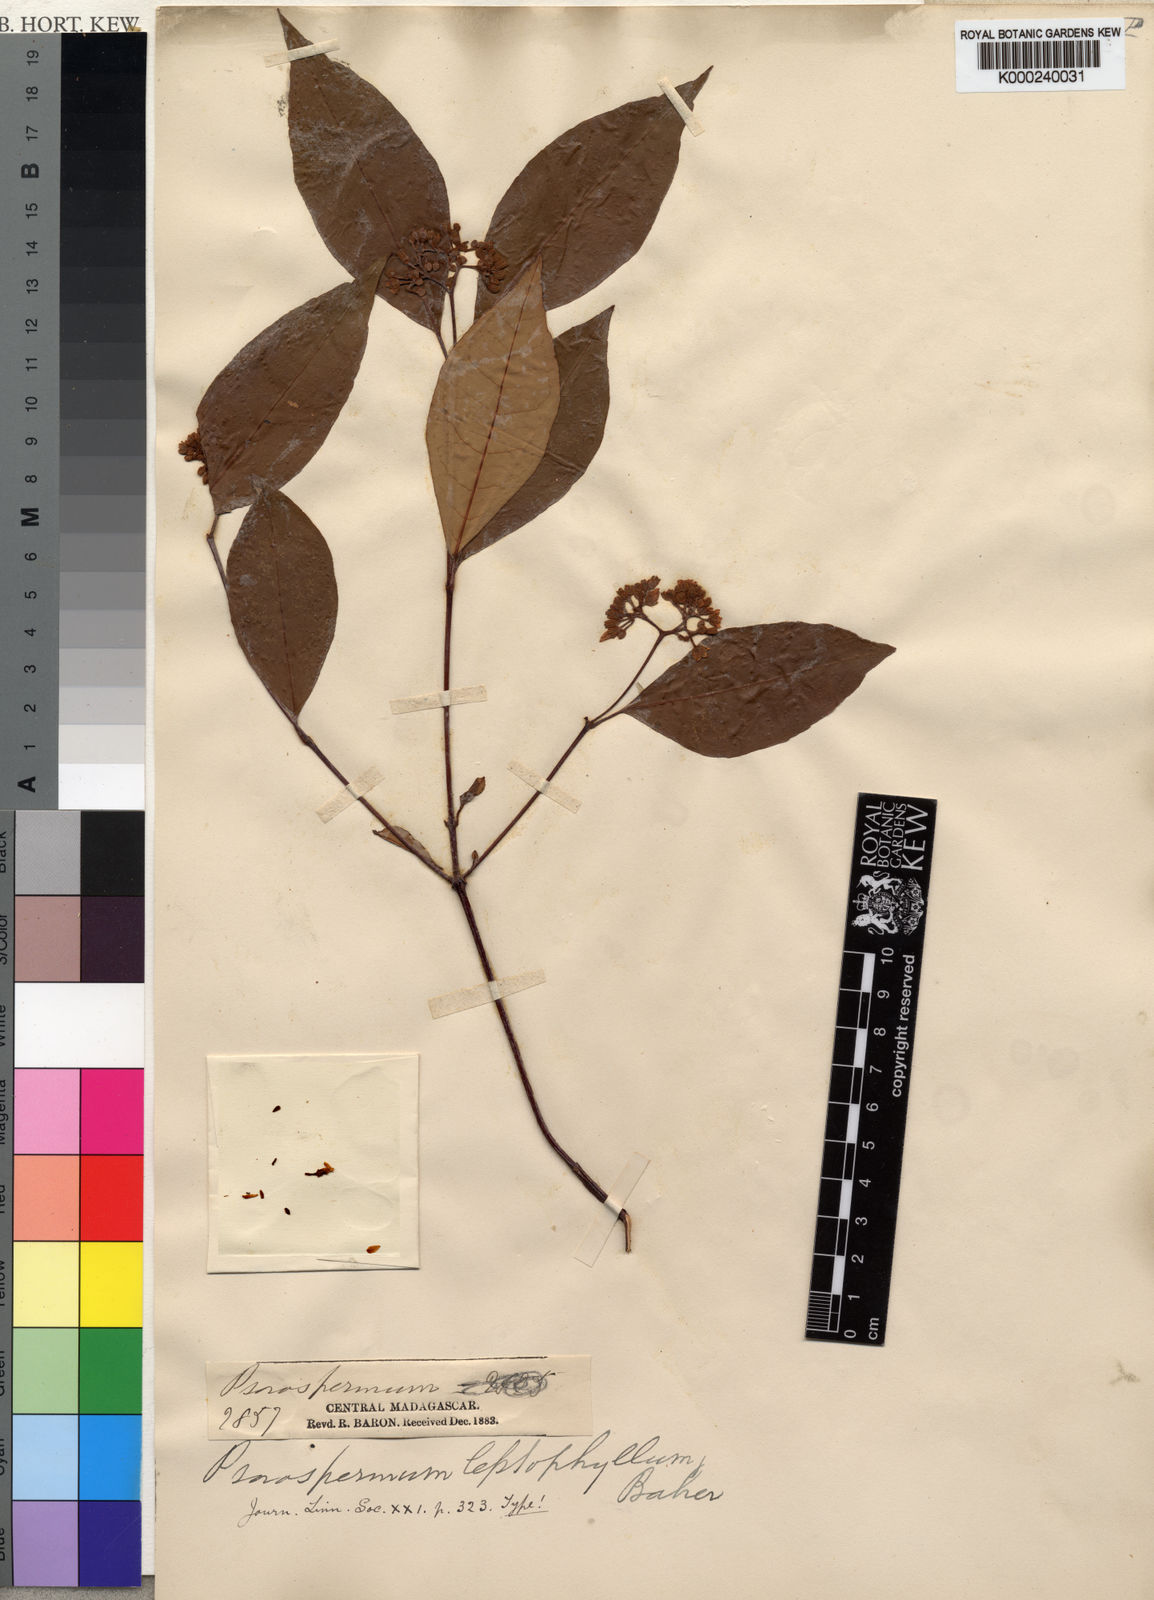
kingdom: Plantae
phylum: Tracheophyta
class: Magnoliopsida
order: Malpighiales
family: Hypericaceae
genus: Psorospermum
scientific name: Psorospermum crenatum
